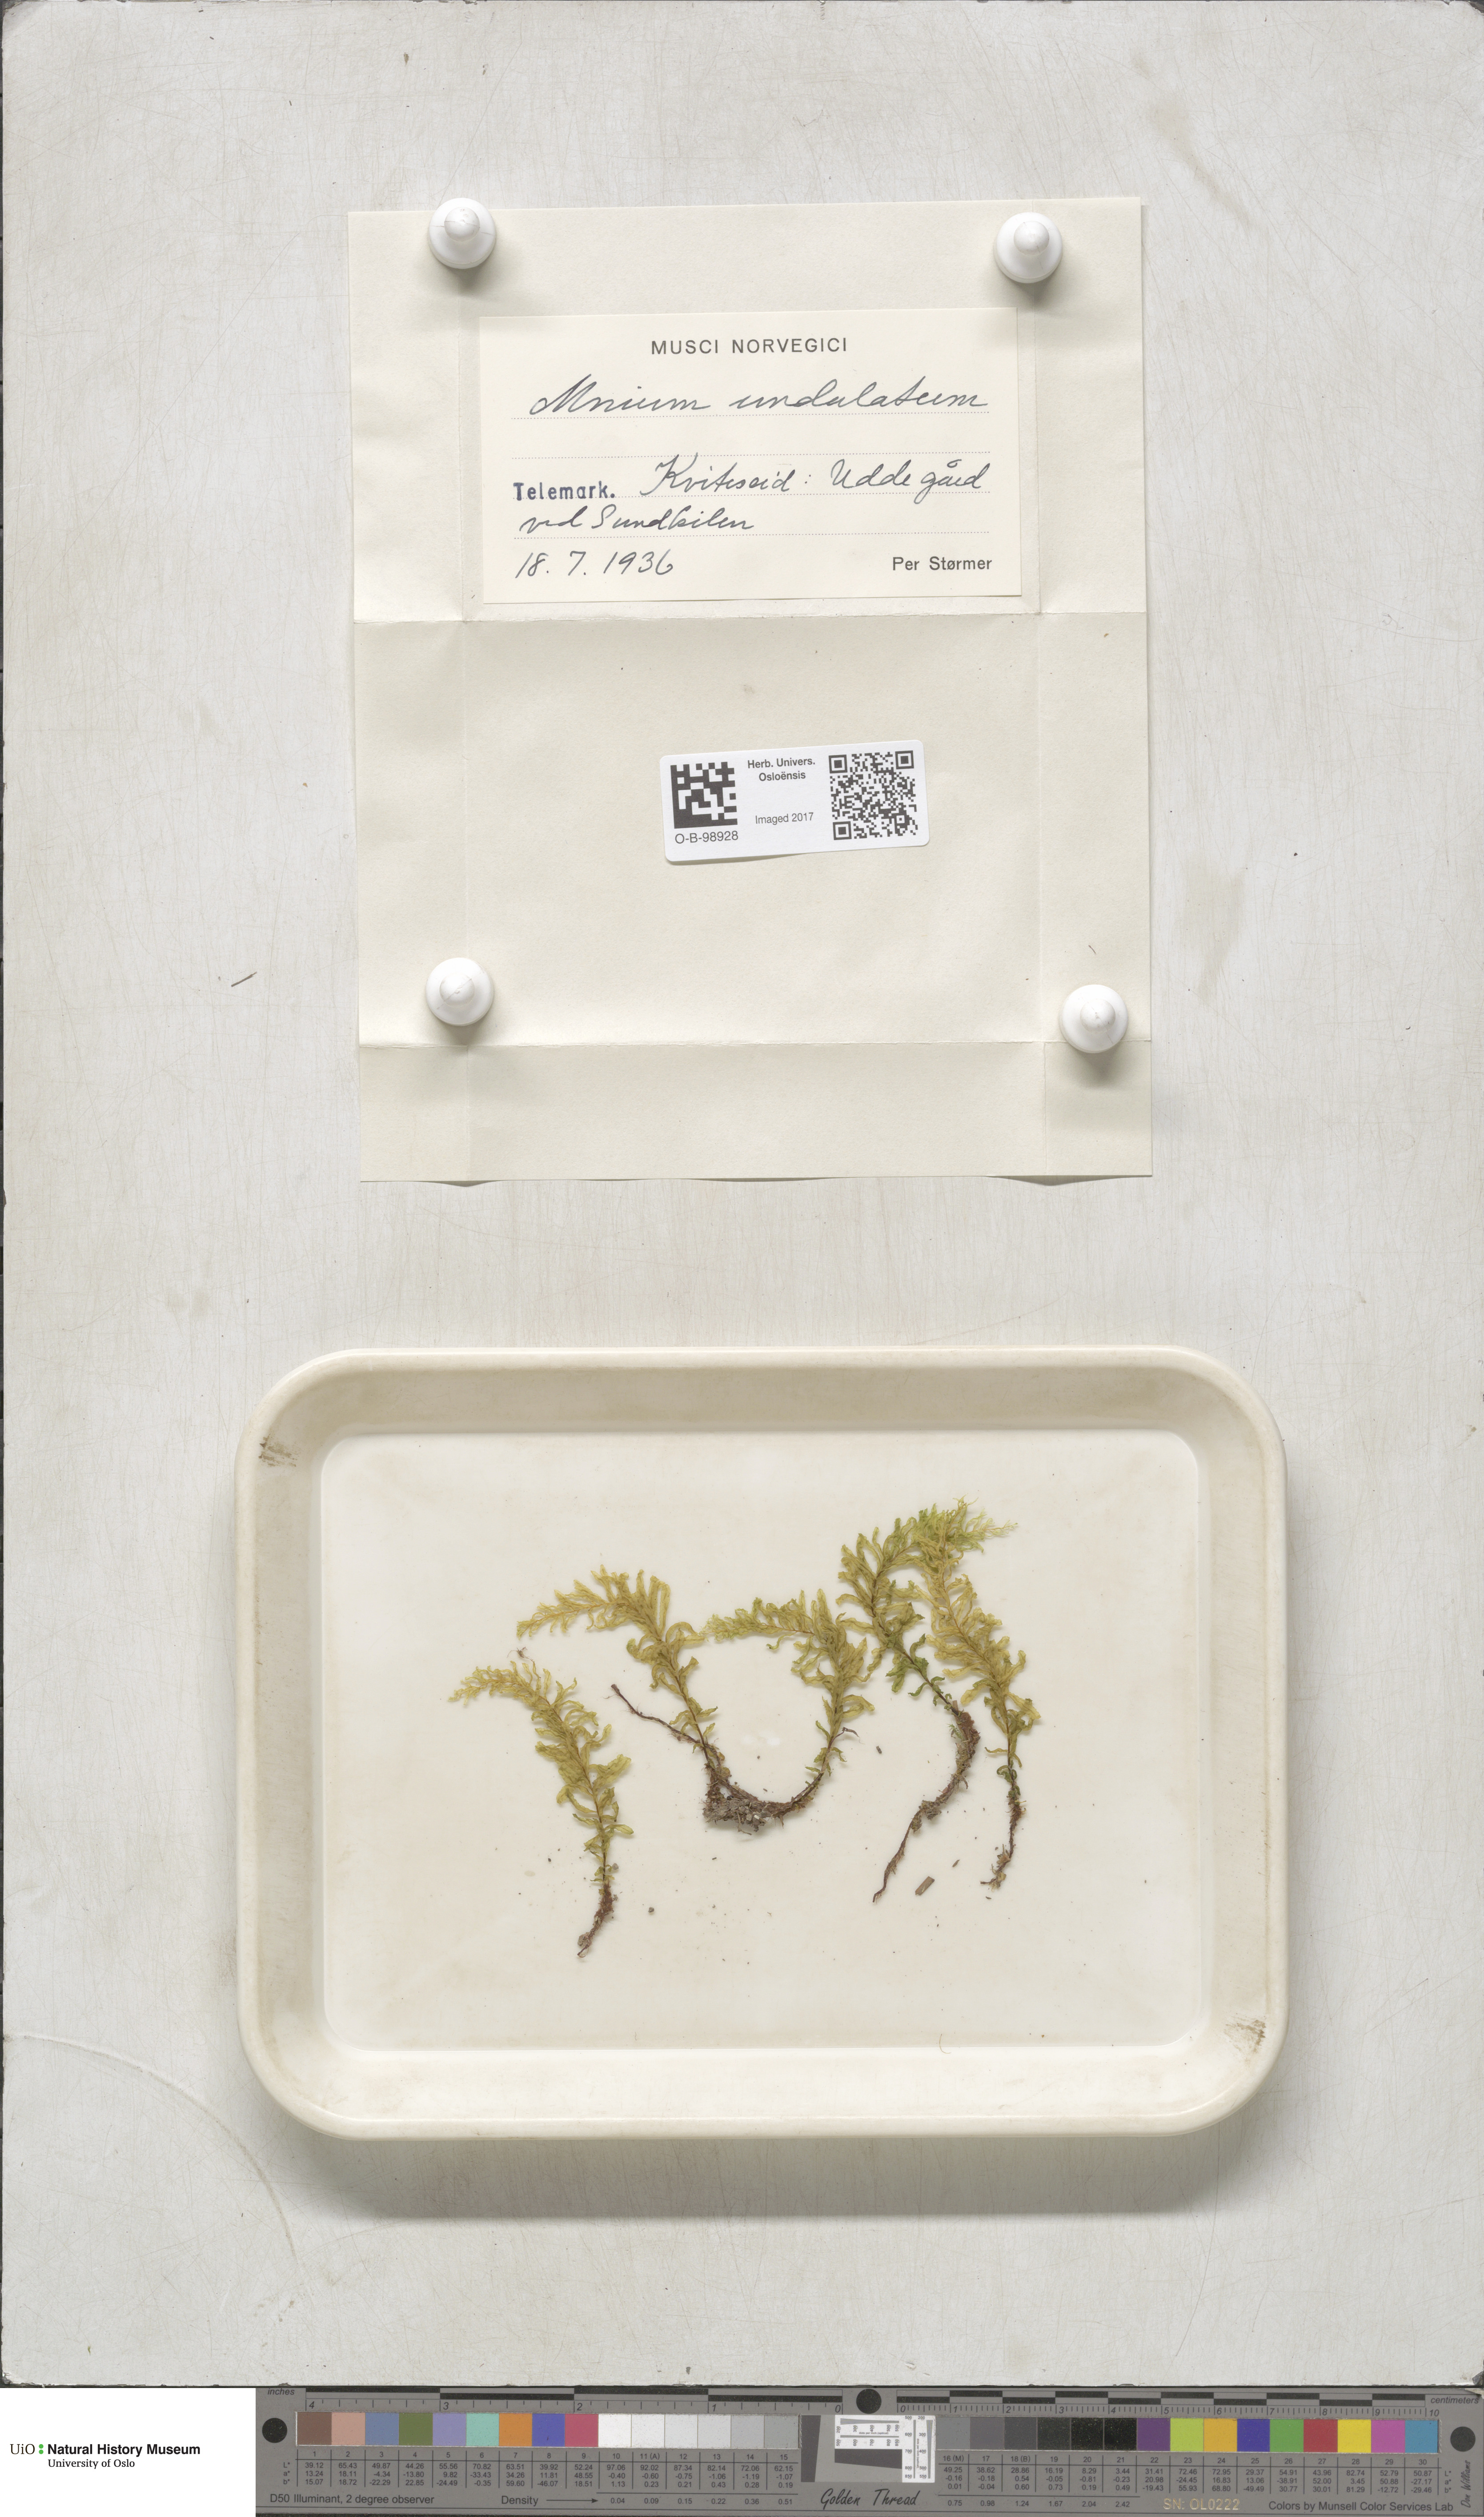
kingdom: Plantae
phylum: Bryophyta
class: Bryopsida
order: Bryales
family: Mniaceae
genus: Plagiomnium
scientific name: Plagiomnium undulatum
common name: Hart's-tongue thyme-moss
